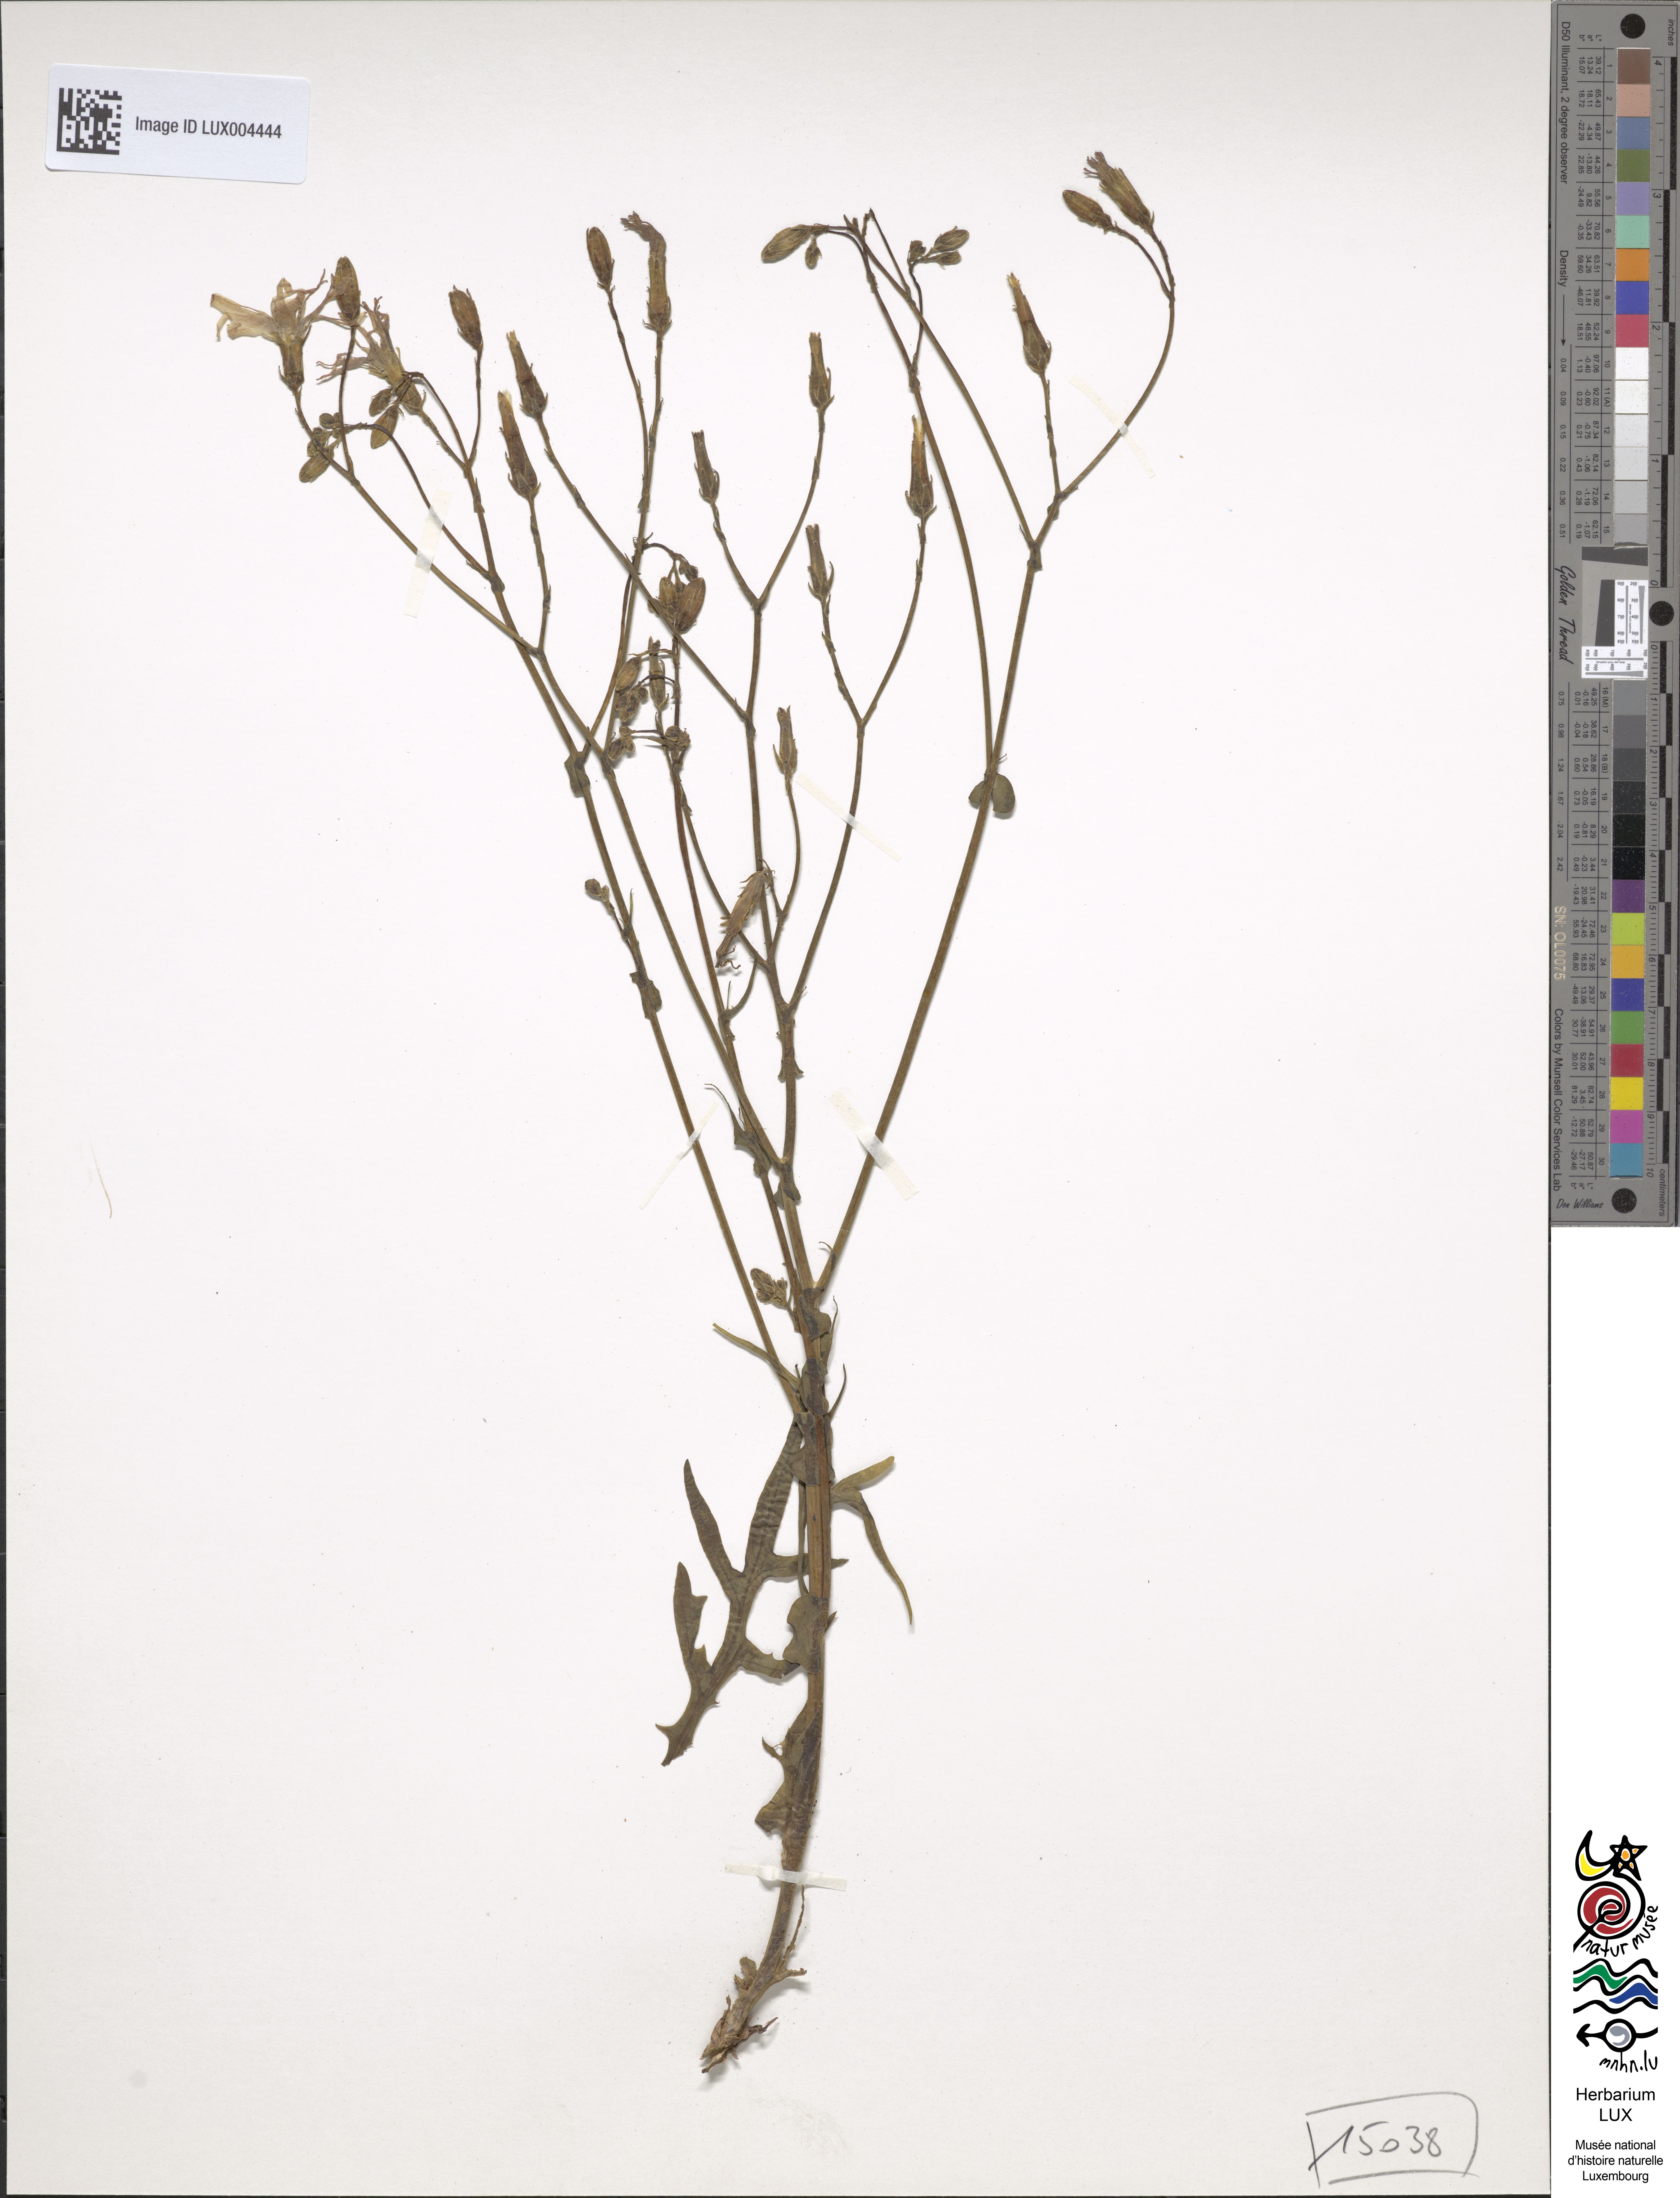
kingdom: Plantae
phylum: Tracheophyta
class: Magnoliopsida
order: Asterales
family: Asteraceae
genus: Lactuca
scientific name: Lactuca perennis
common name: Mountain lettuce
